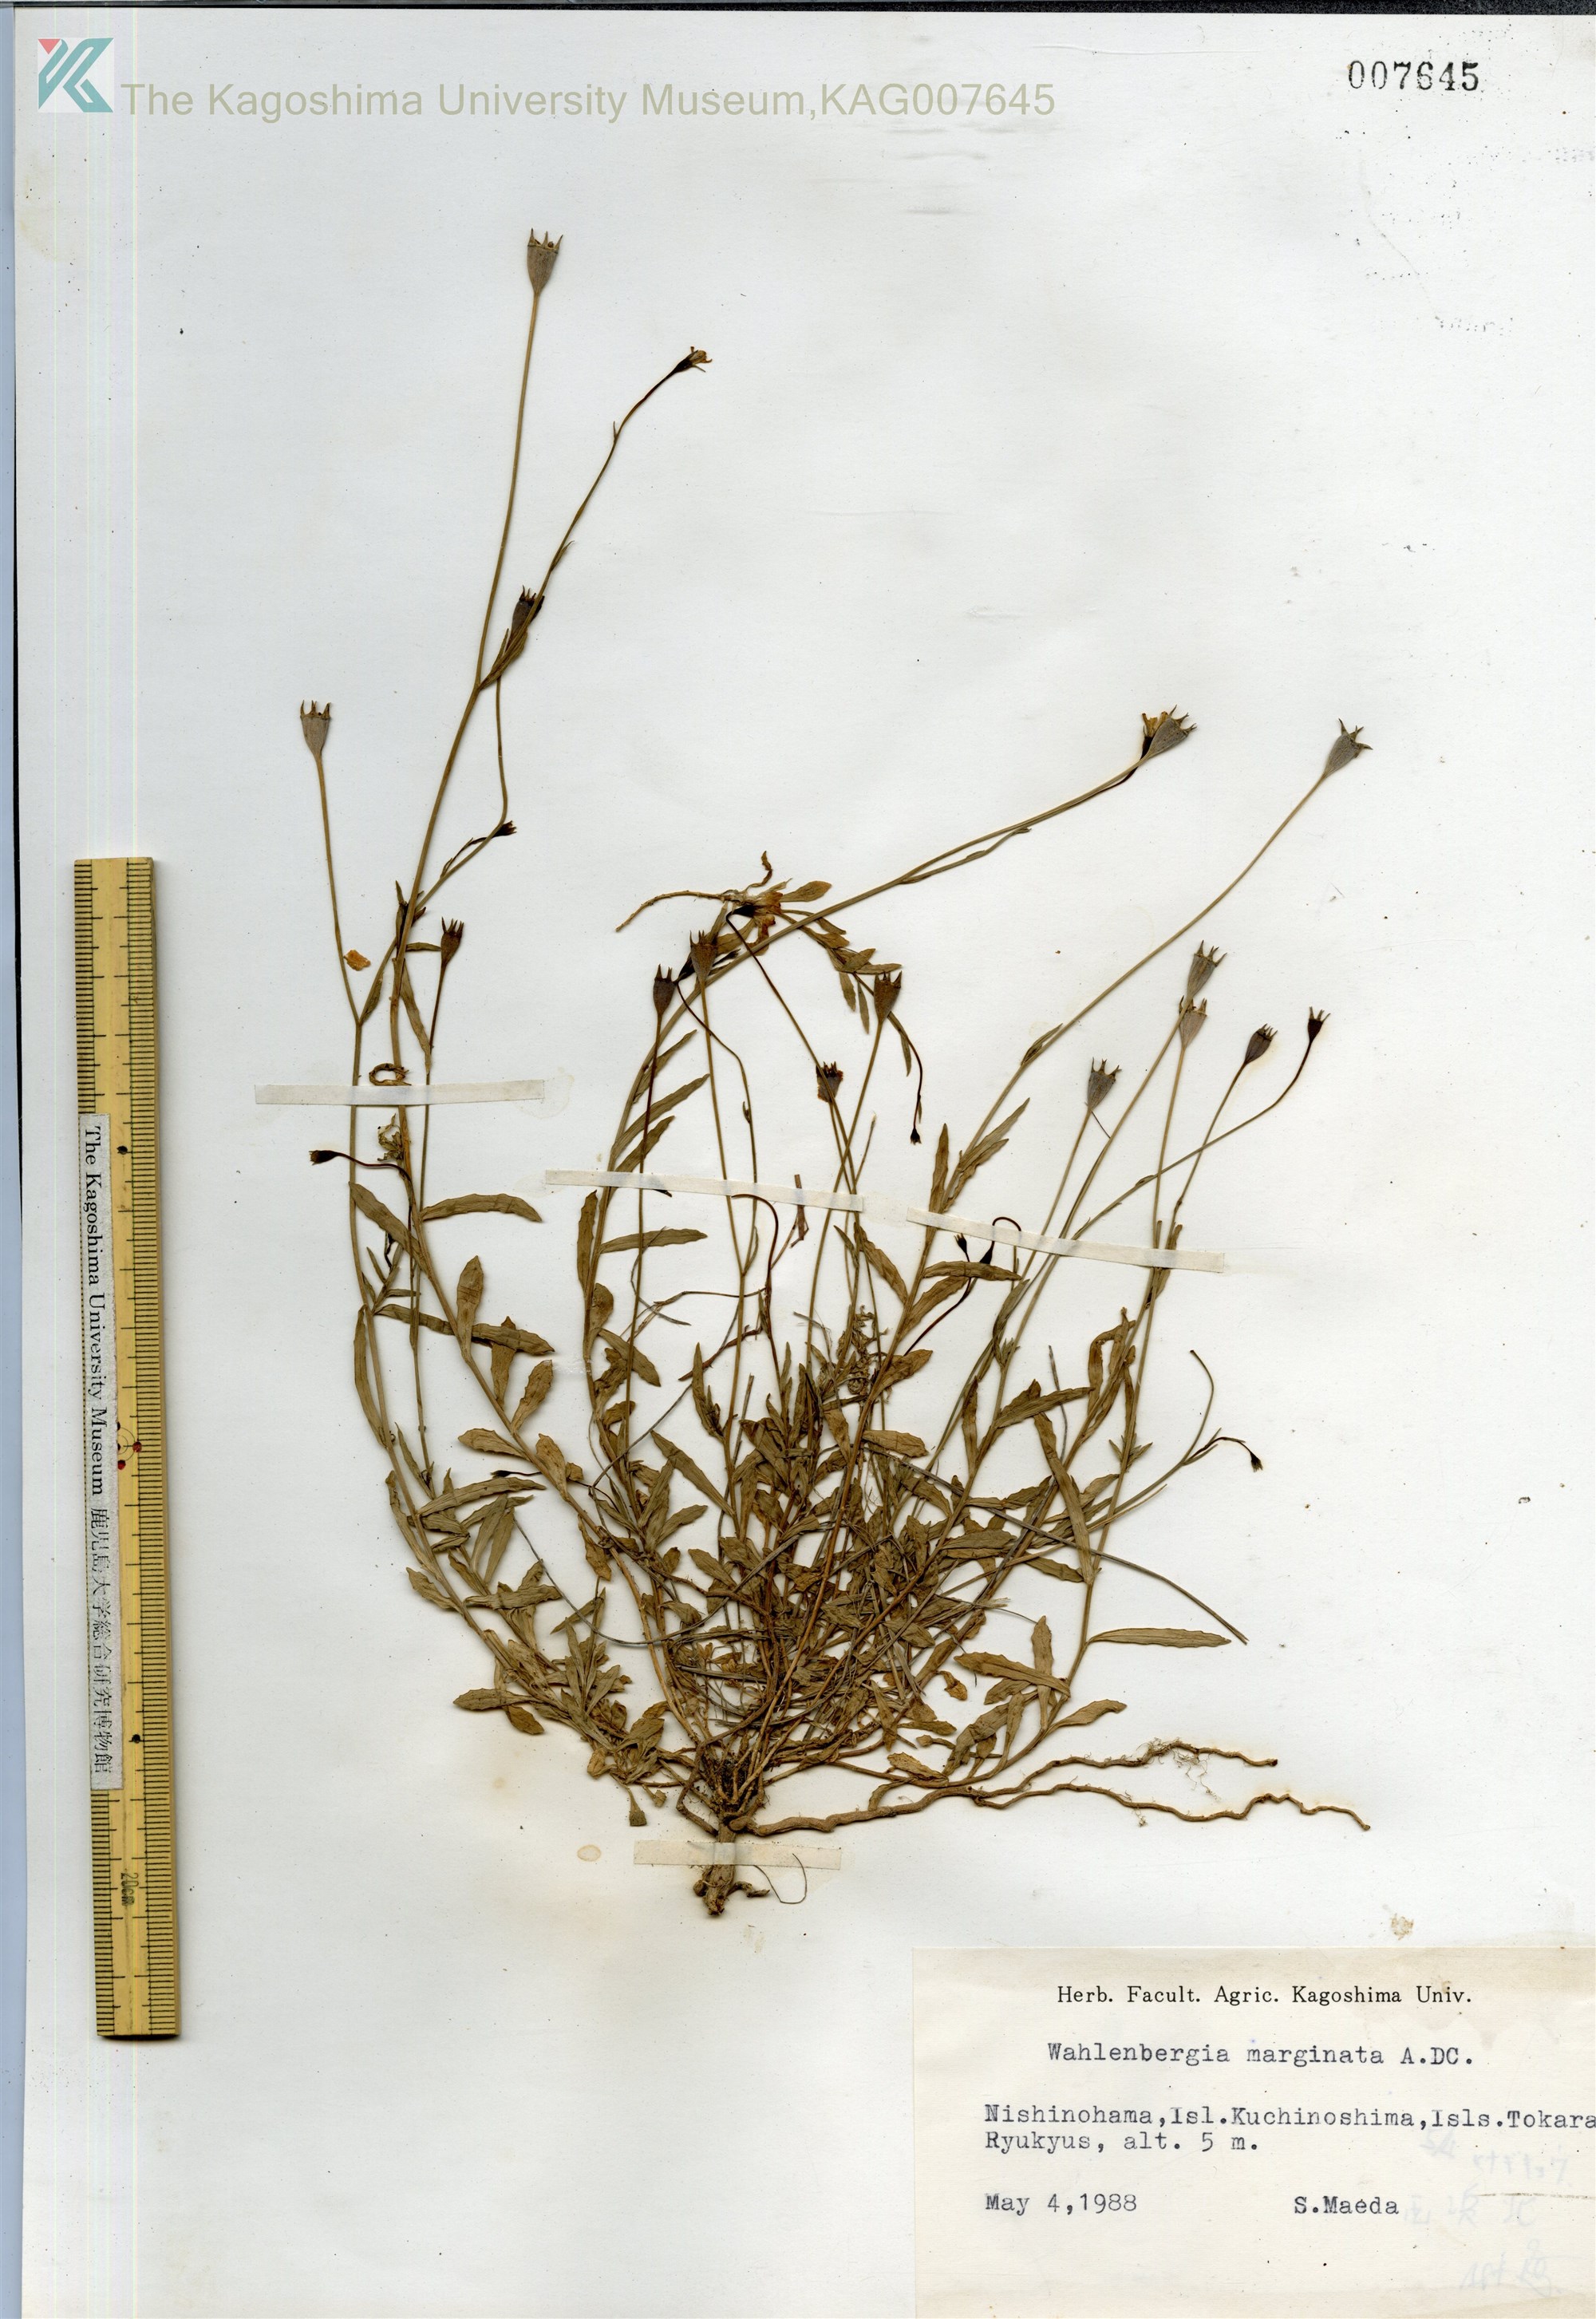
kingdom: Plantae
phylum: Tracheophyta
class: Magnoliopsida
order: Asterales
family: Campanulaceae
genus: Wahlenbergia
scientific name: Wahlenbergia marginata
